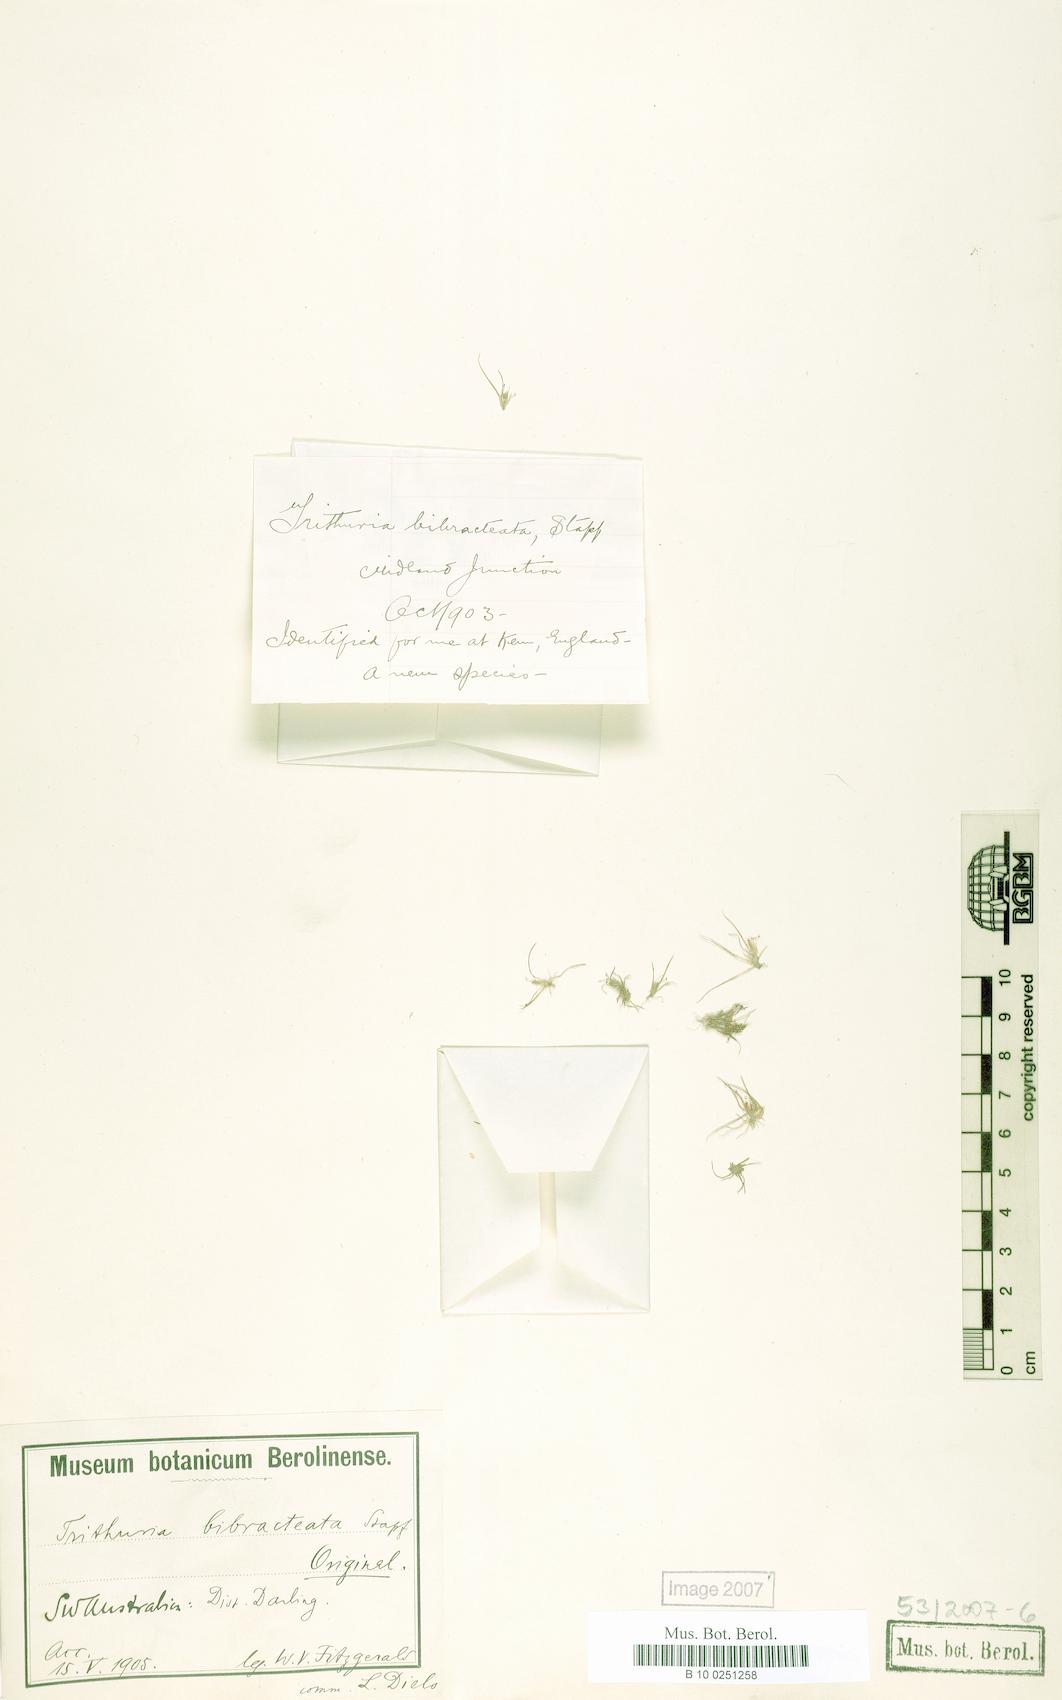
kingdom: Plantae
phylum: Tracheophyta
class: Magnoliopsida
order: Nymphaeales
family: Hydatellaceae
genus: Trithuria
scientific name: Trithuria australis
